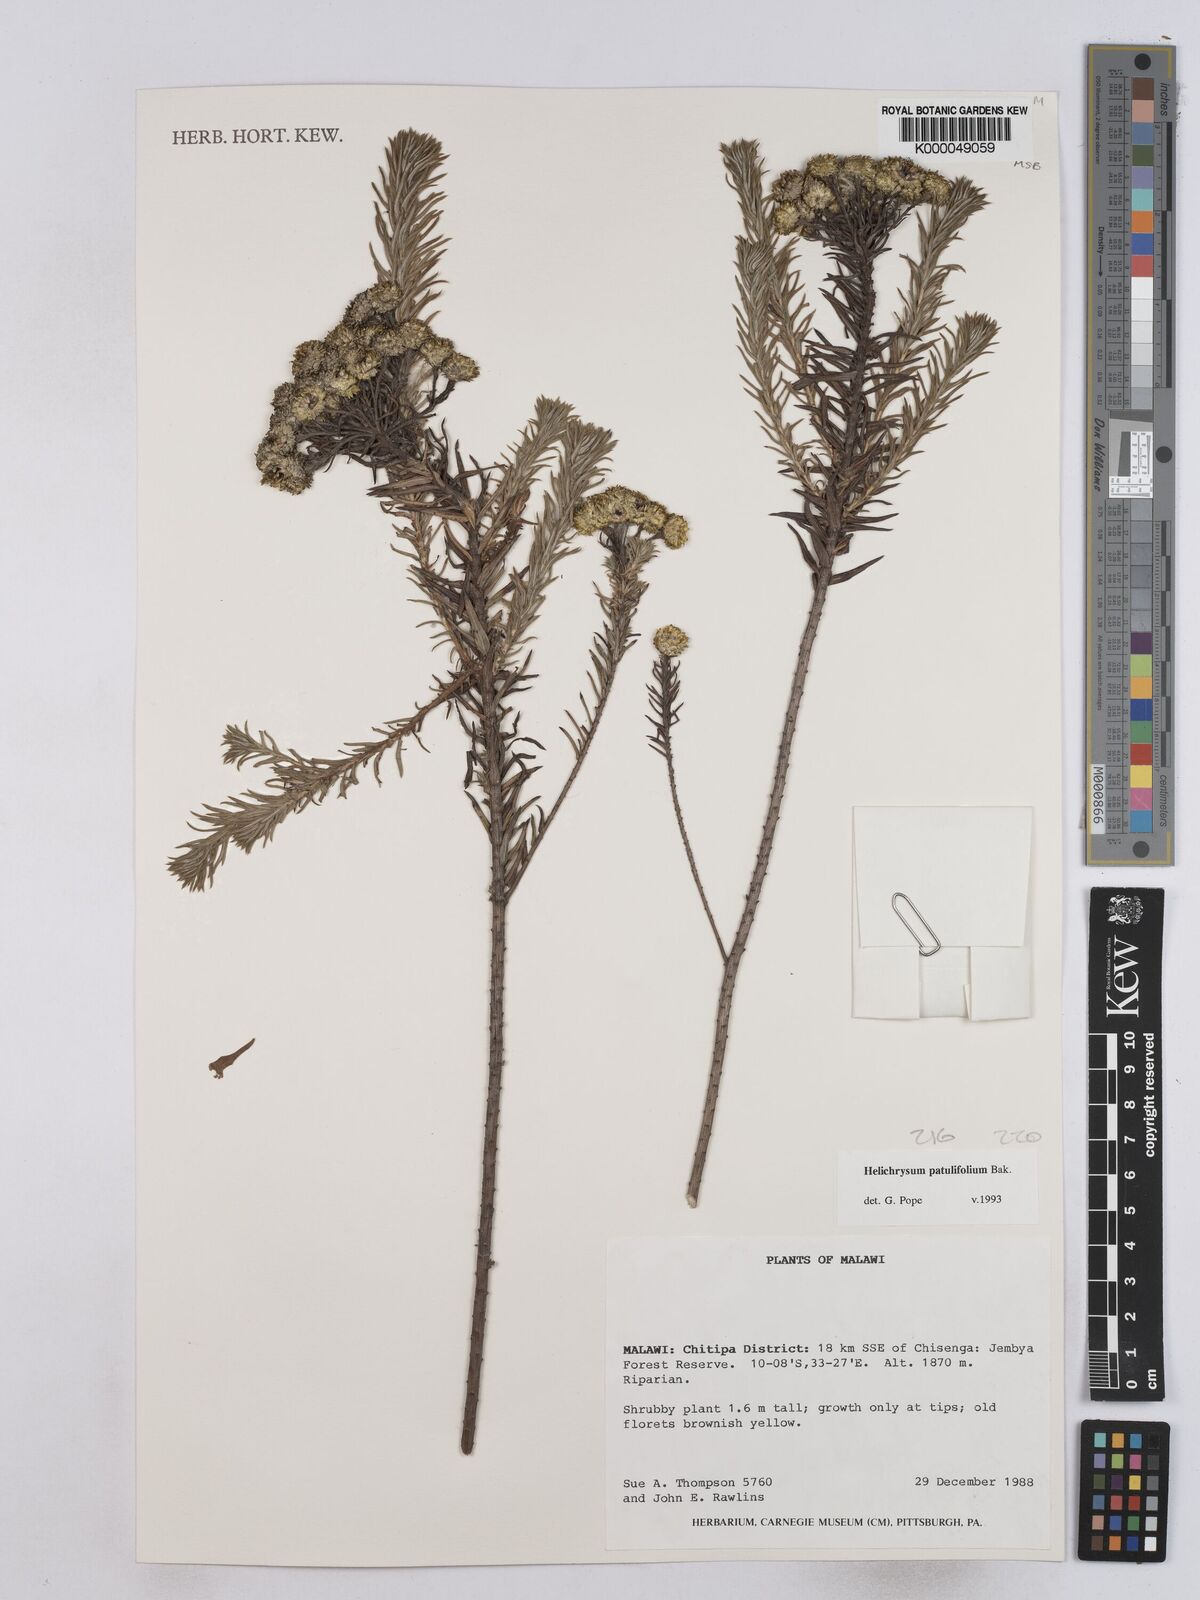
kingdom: Plantae
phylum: Tracheophyta
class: Magnoliopsida
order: Asterales
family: Asteraceae
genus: Helichrysum
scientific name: Helichrysum patulifolium
